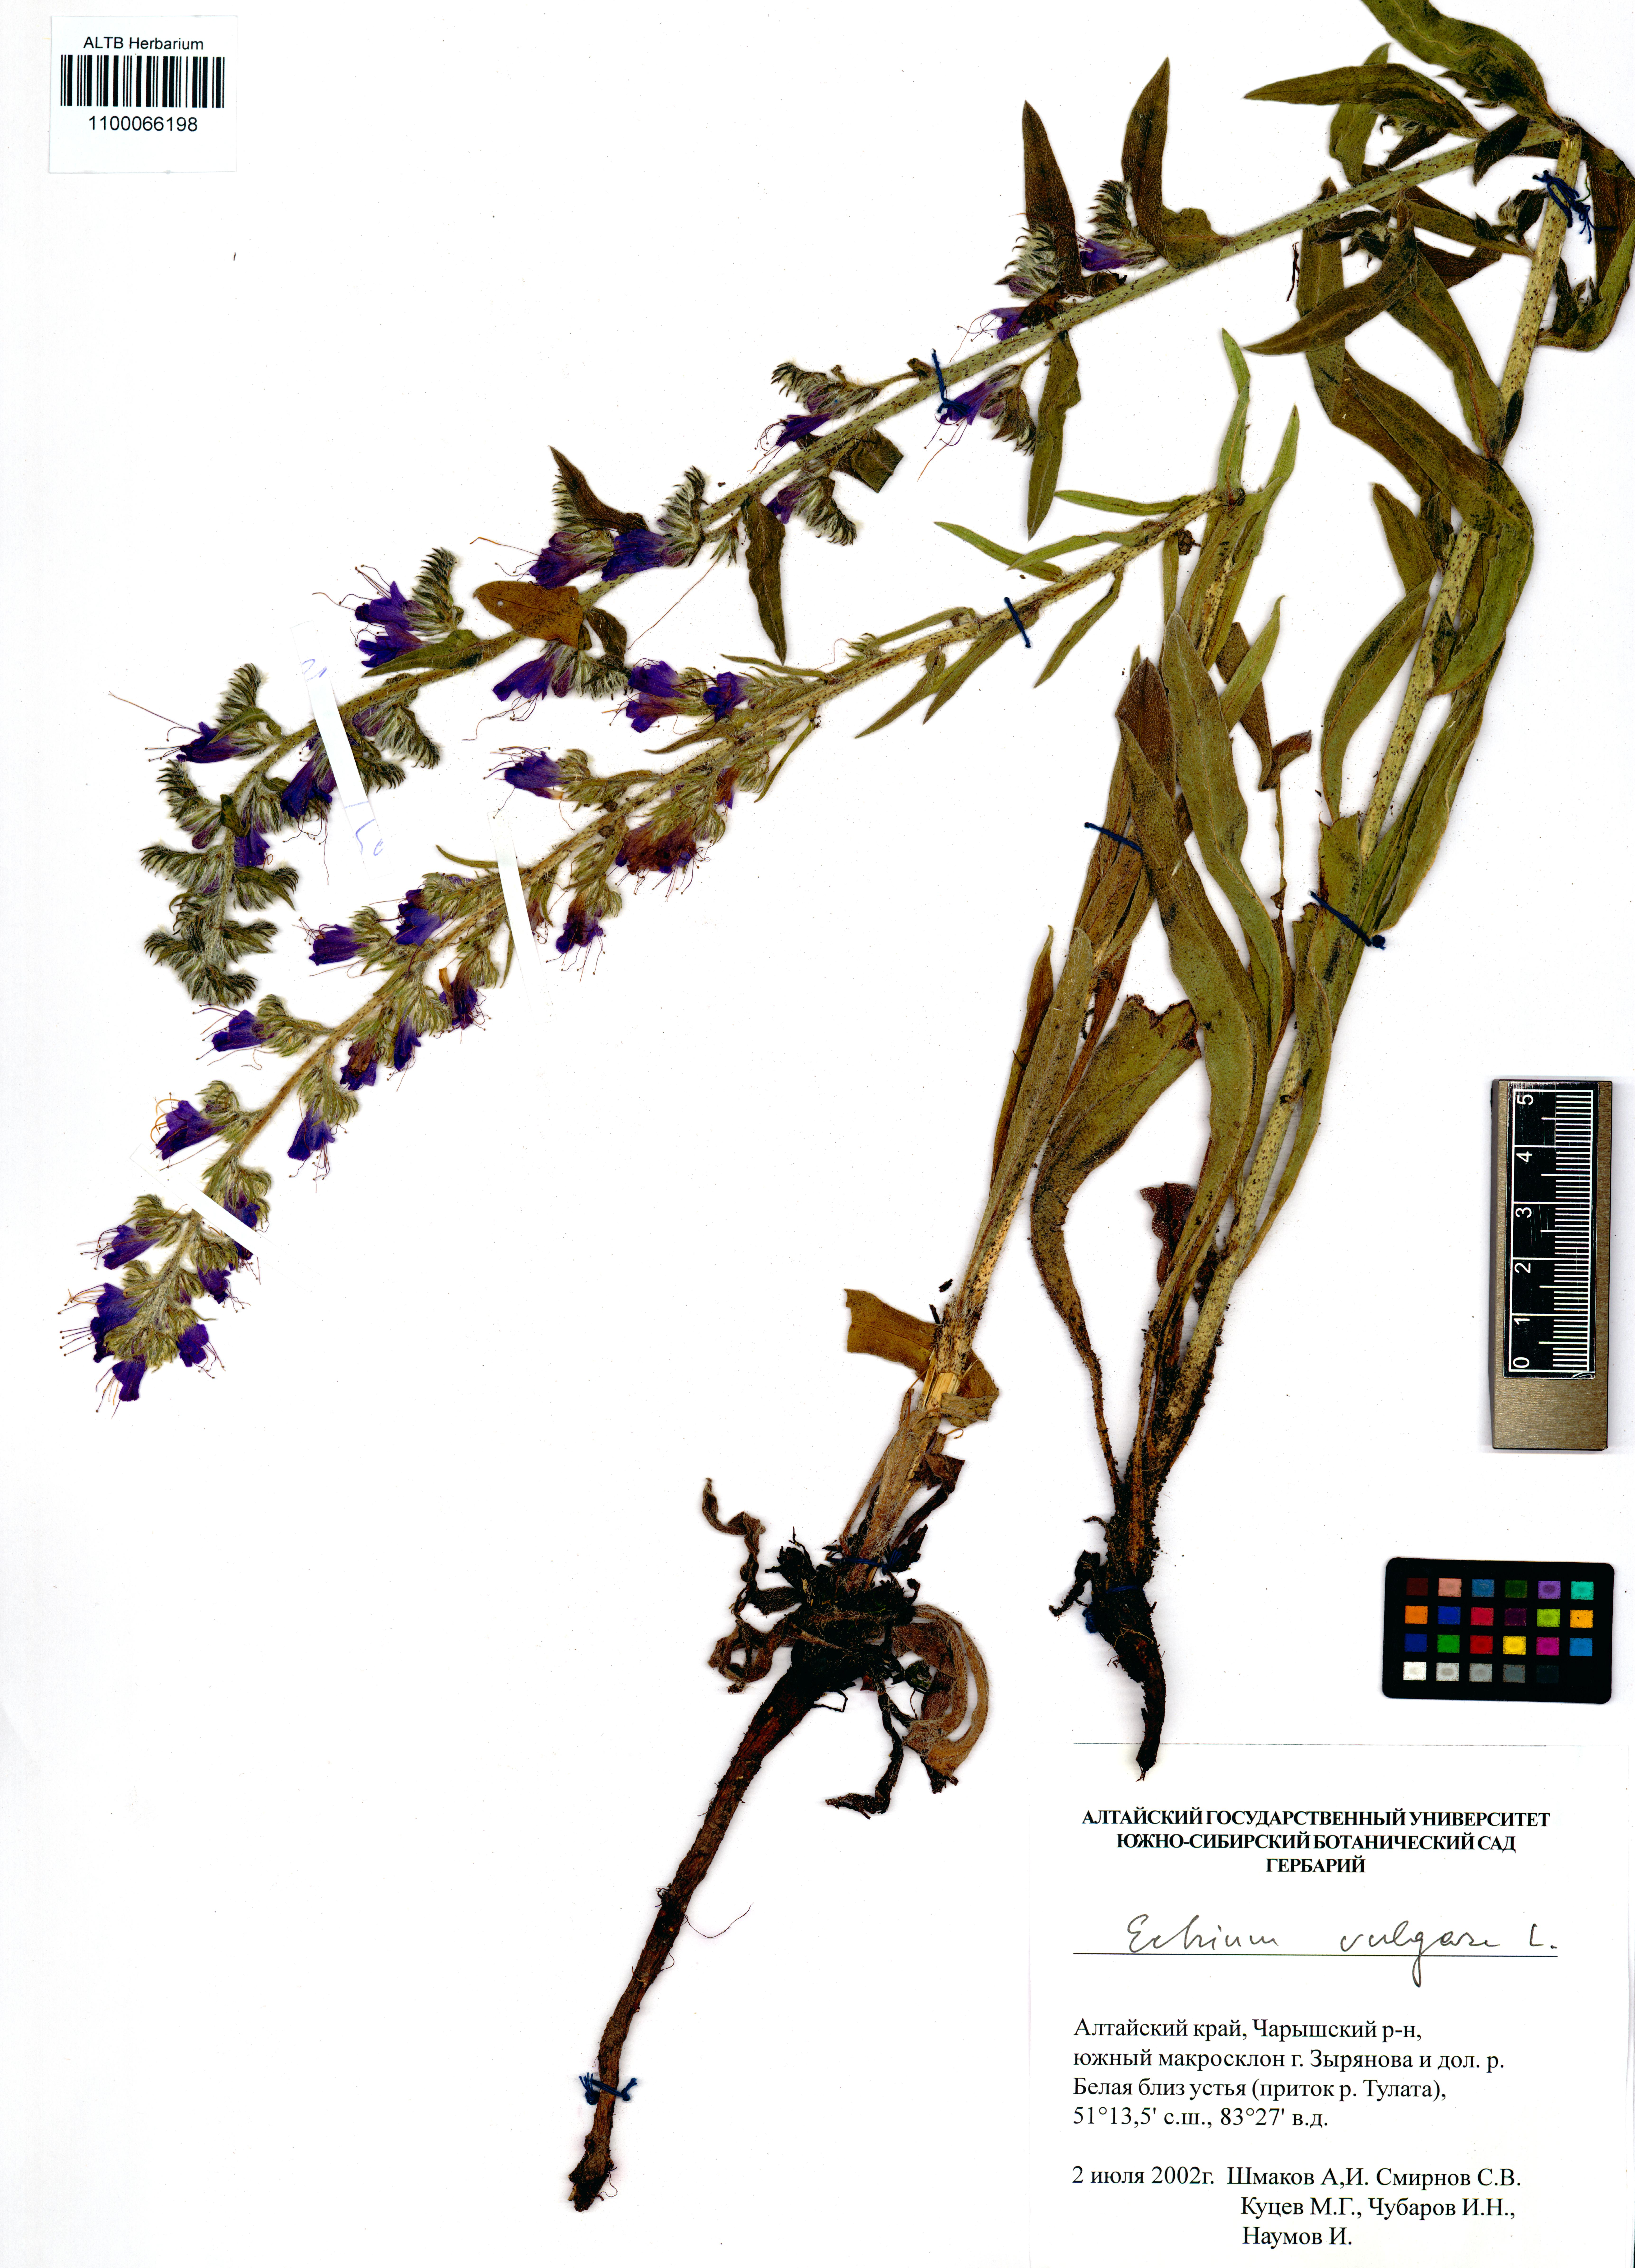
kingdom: Plantae
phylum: Tracheophyta
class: Magnoliopsida
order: Boraginales
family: Boraginaceae
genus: Echium
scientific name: Echium vulgare
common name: Common viper's bugloss
